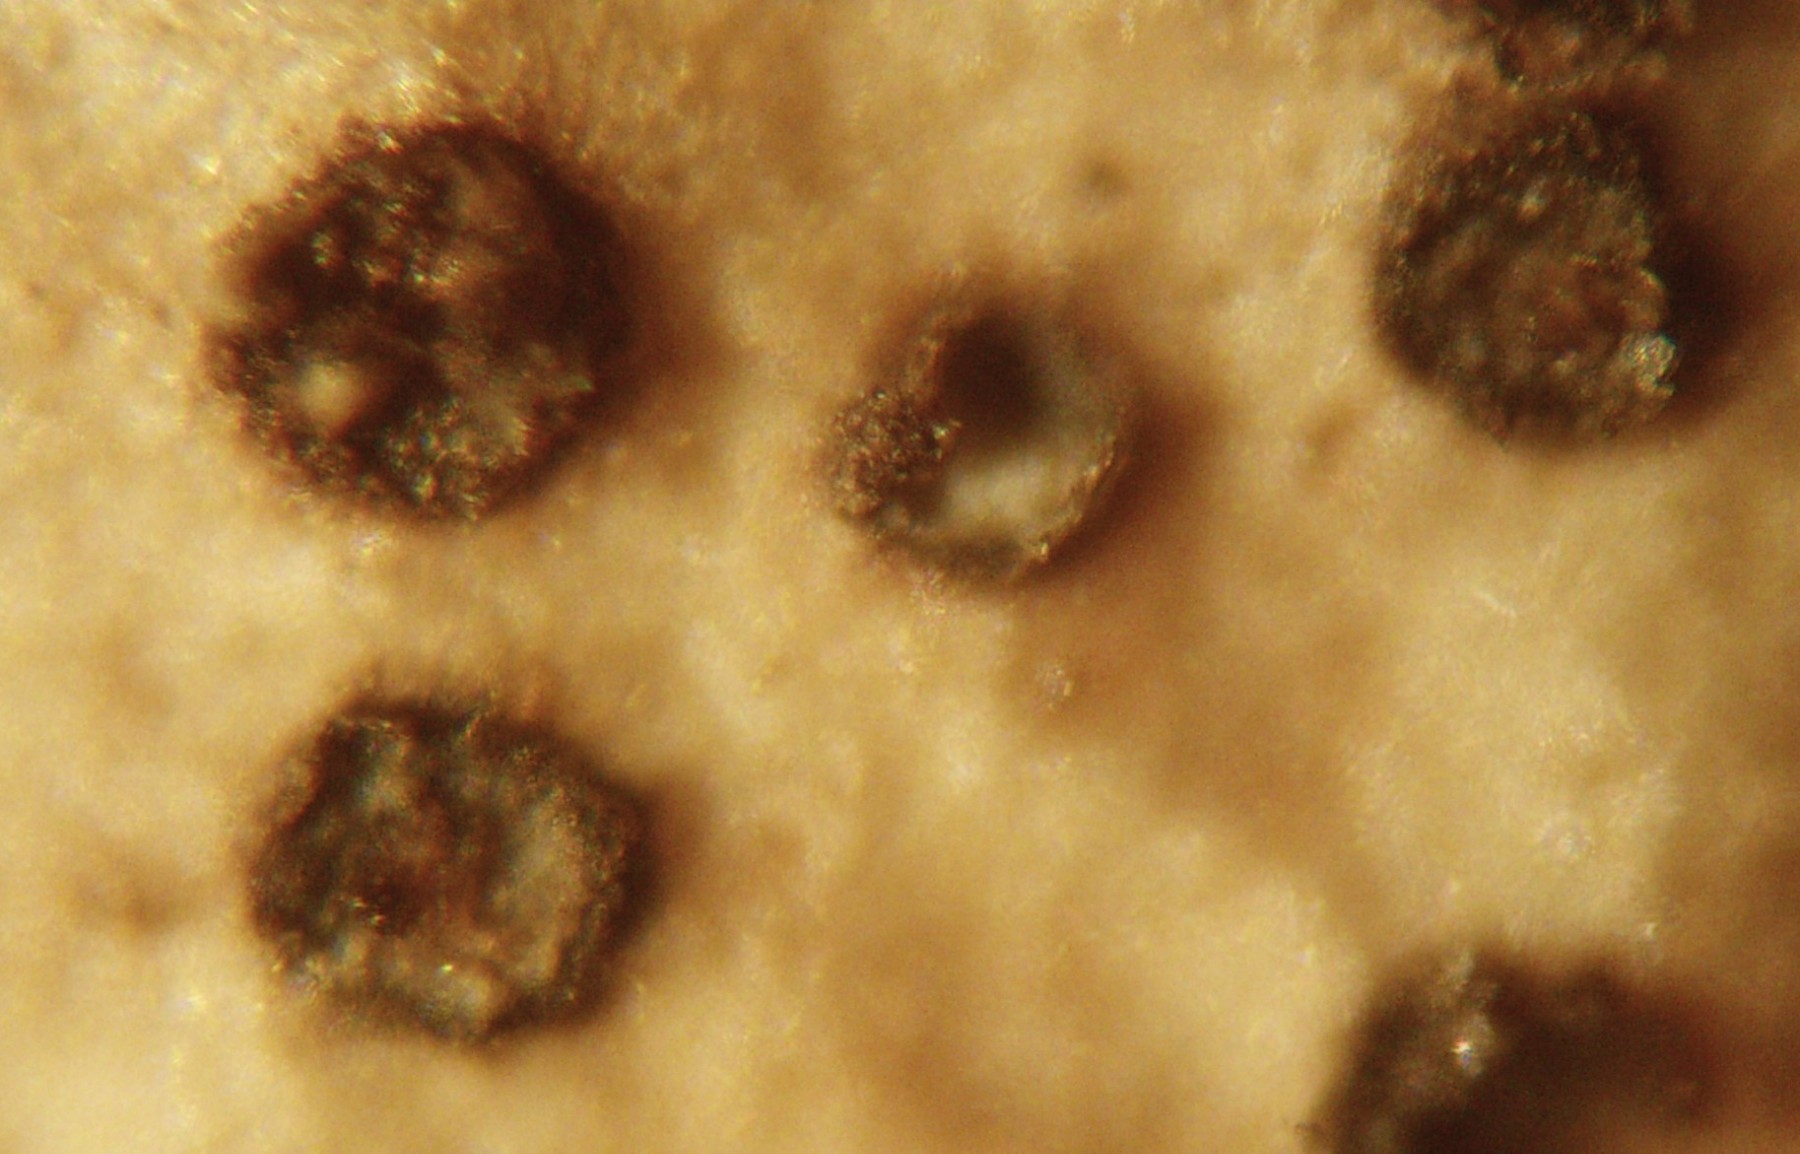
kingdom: Fungi
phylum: Ascomycota
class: Leotiomycetes
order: Helotiales
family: Cenangiaceae
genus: Trochila
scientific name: Trochila craterium
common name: vedbend-lågskive
